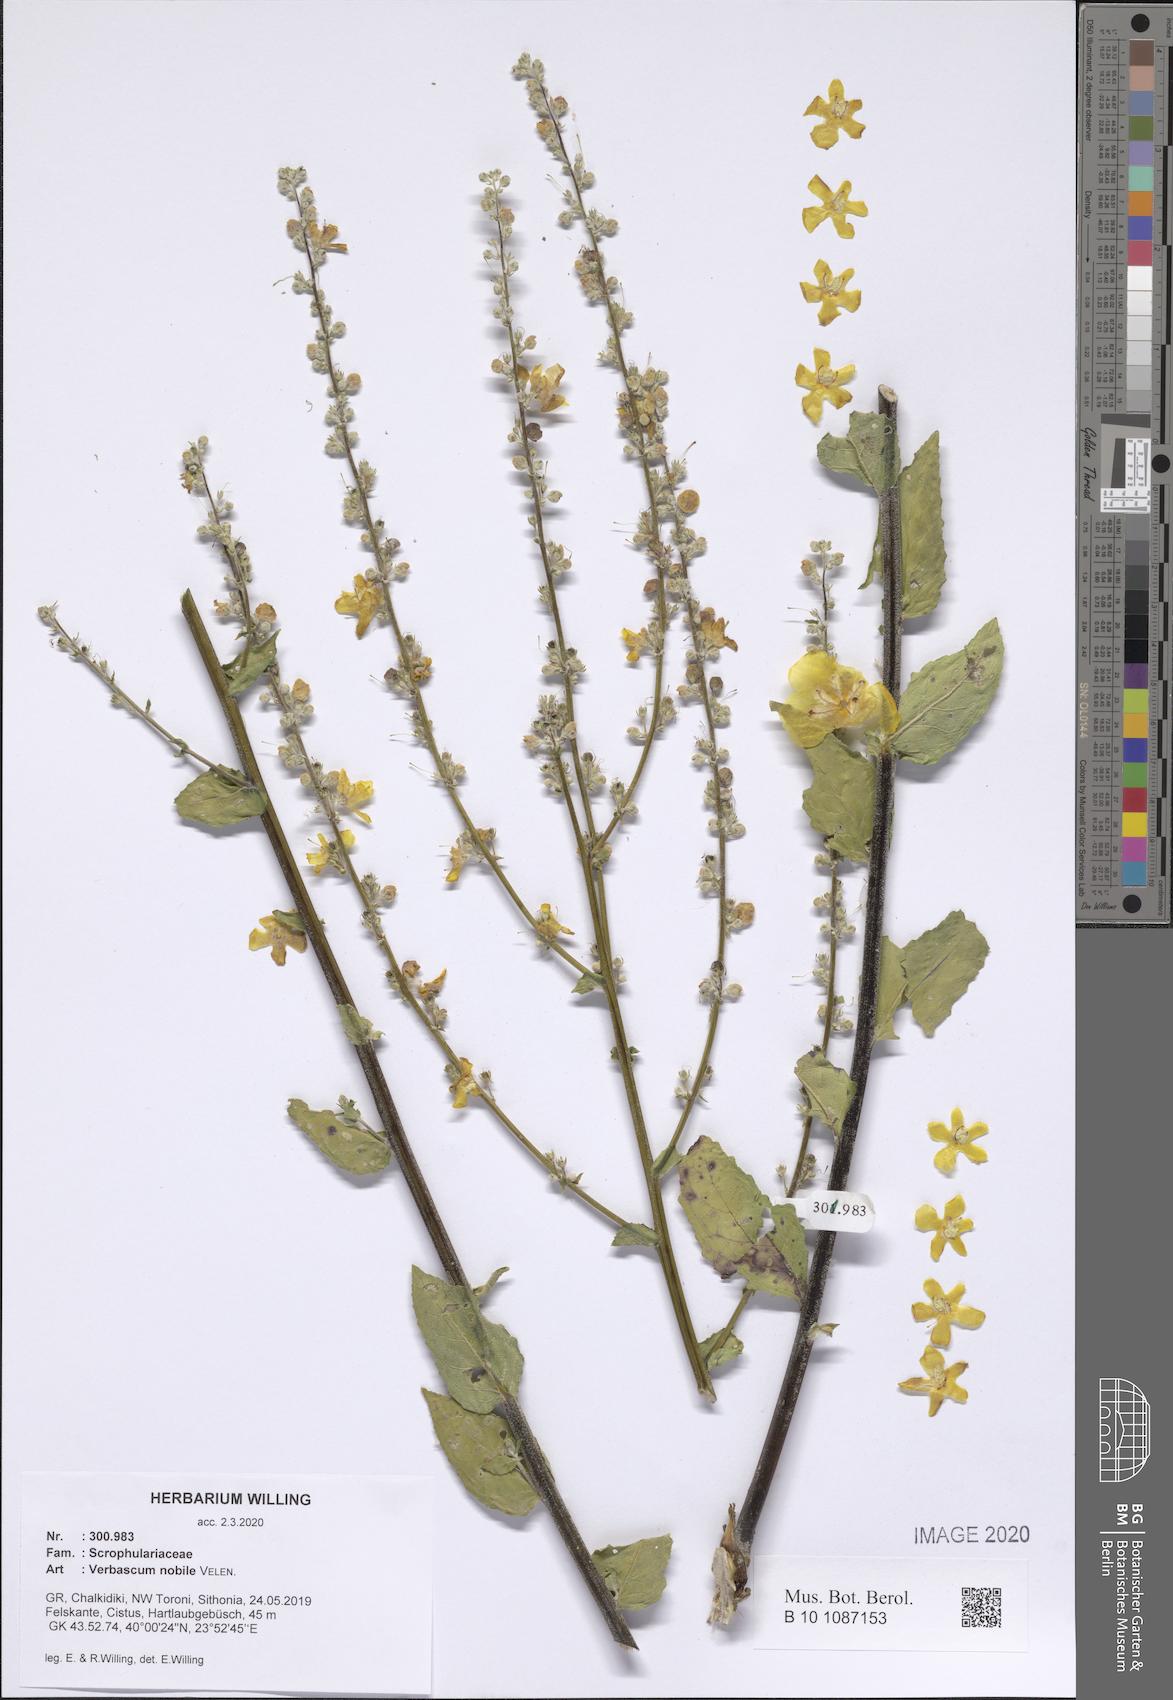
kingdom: Plantae
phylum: Tracheophyta
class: Magnoliopsida
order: Lamiales
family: Scrophulariaceae
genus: Verbascum
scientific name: Verbascum nobile
